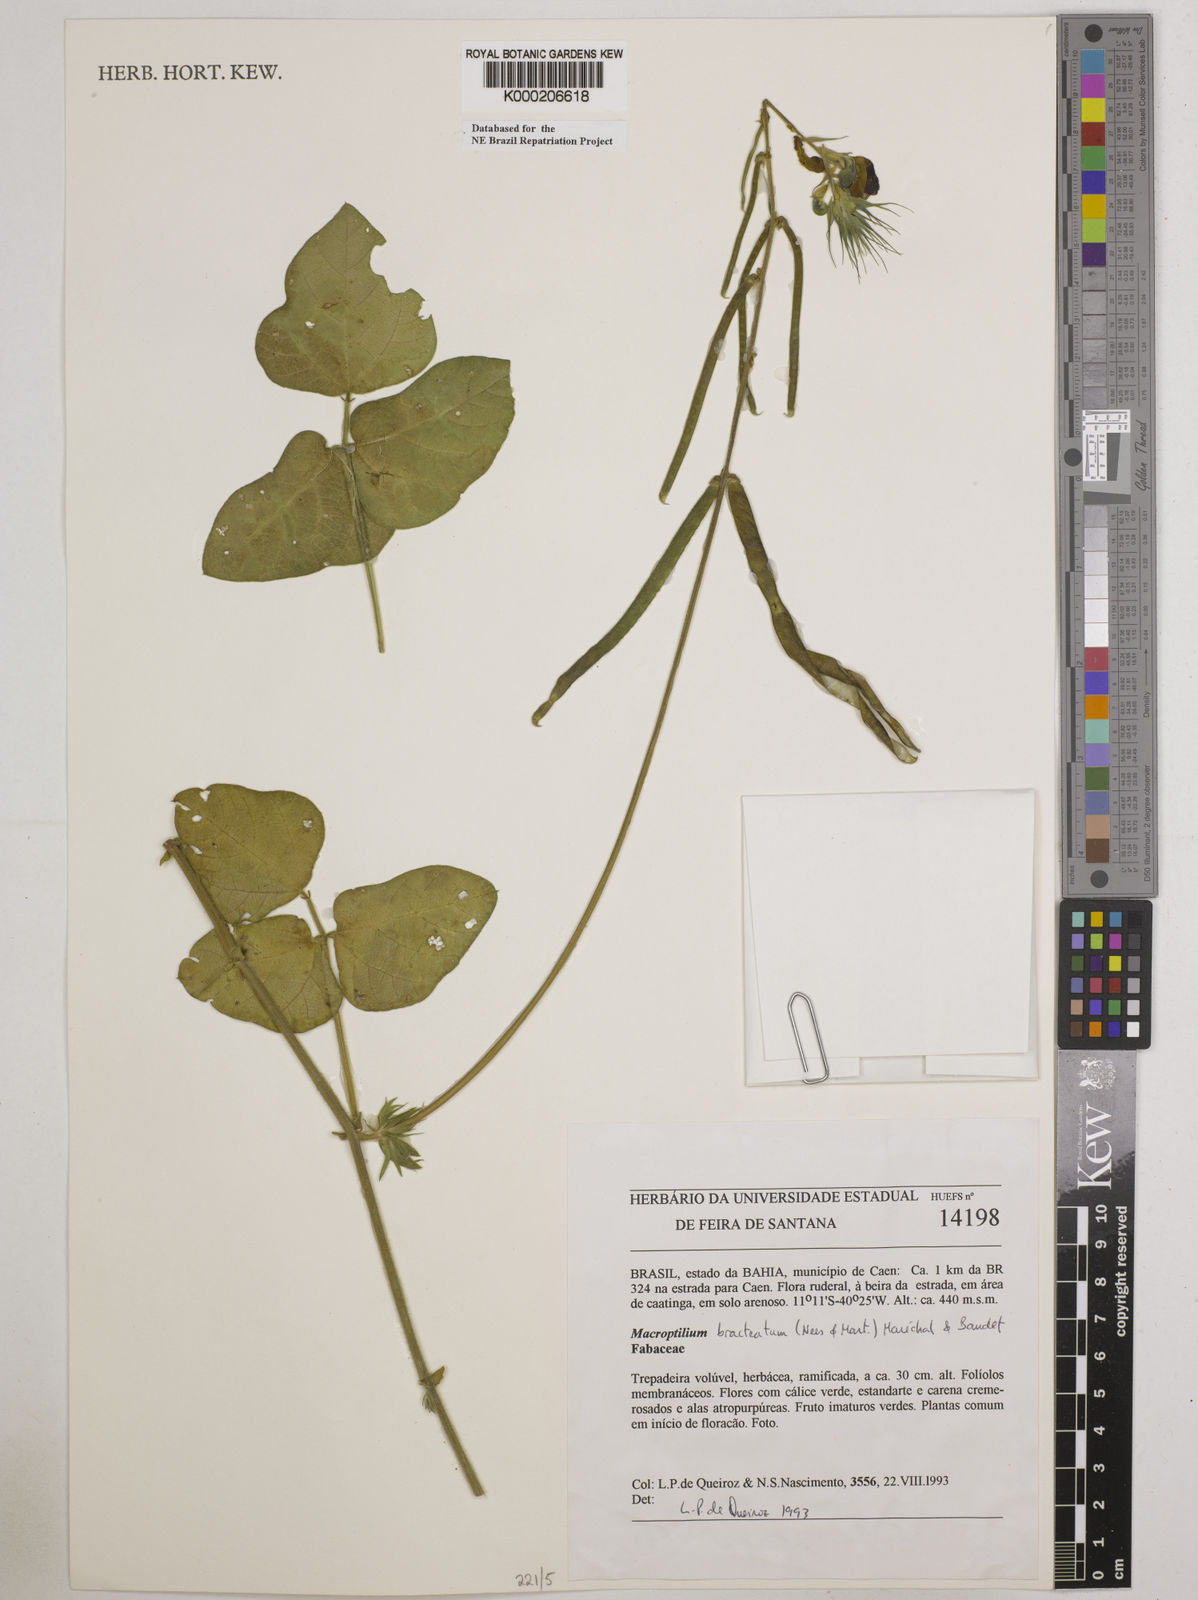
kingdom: Plantae
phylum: Tracheophyta
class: Magnoliopsida
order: Fabales
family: Fabaceae
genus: Macroptilium
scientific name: Macroptilium
